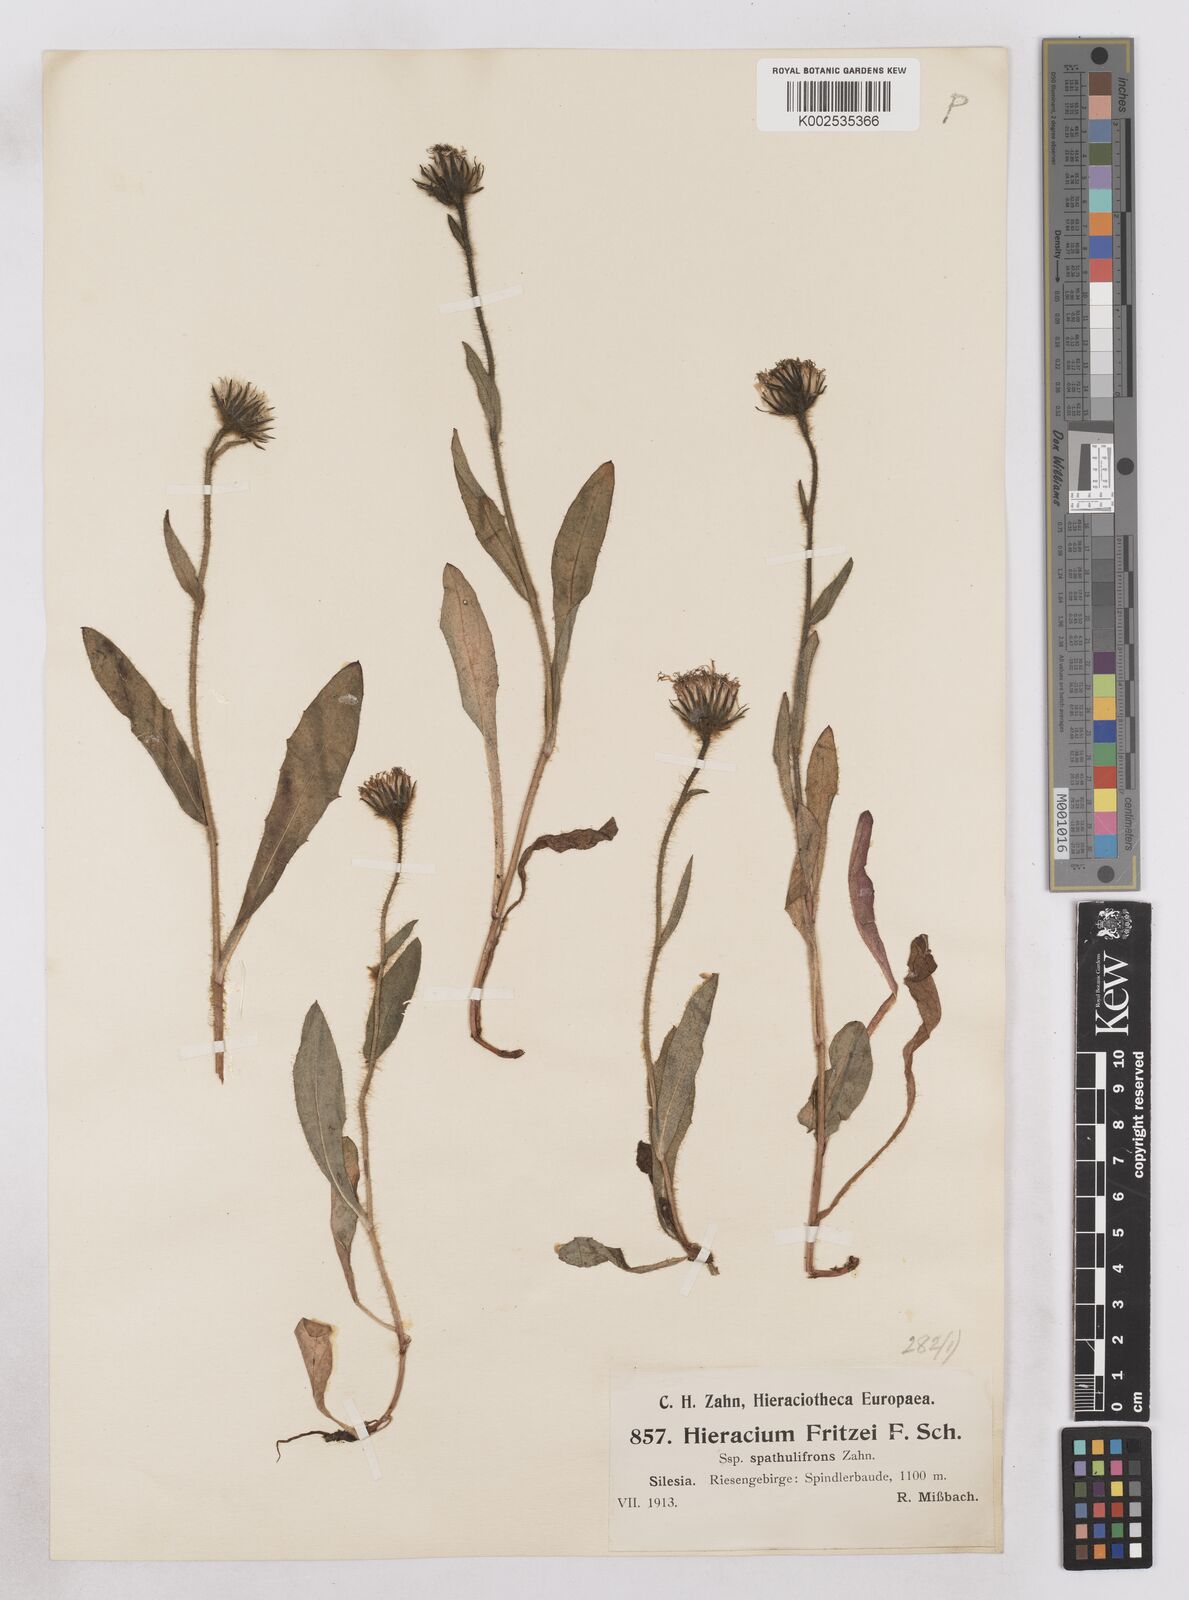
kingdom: Plantae
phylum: Tracheophyta
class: Magnoliopsida
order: Asterales
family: Asteraceae
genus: Hieracium
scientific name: Hieracium fritzei
